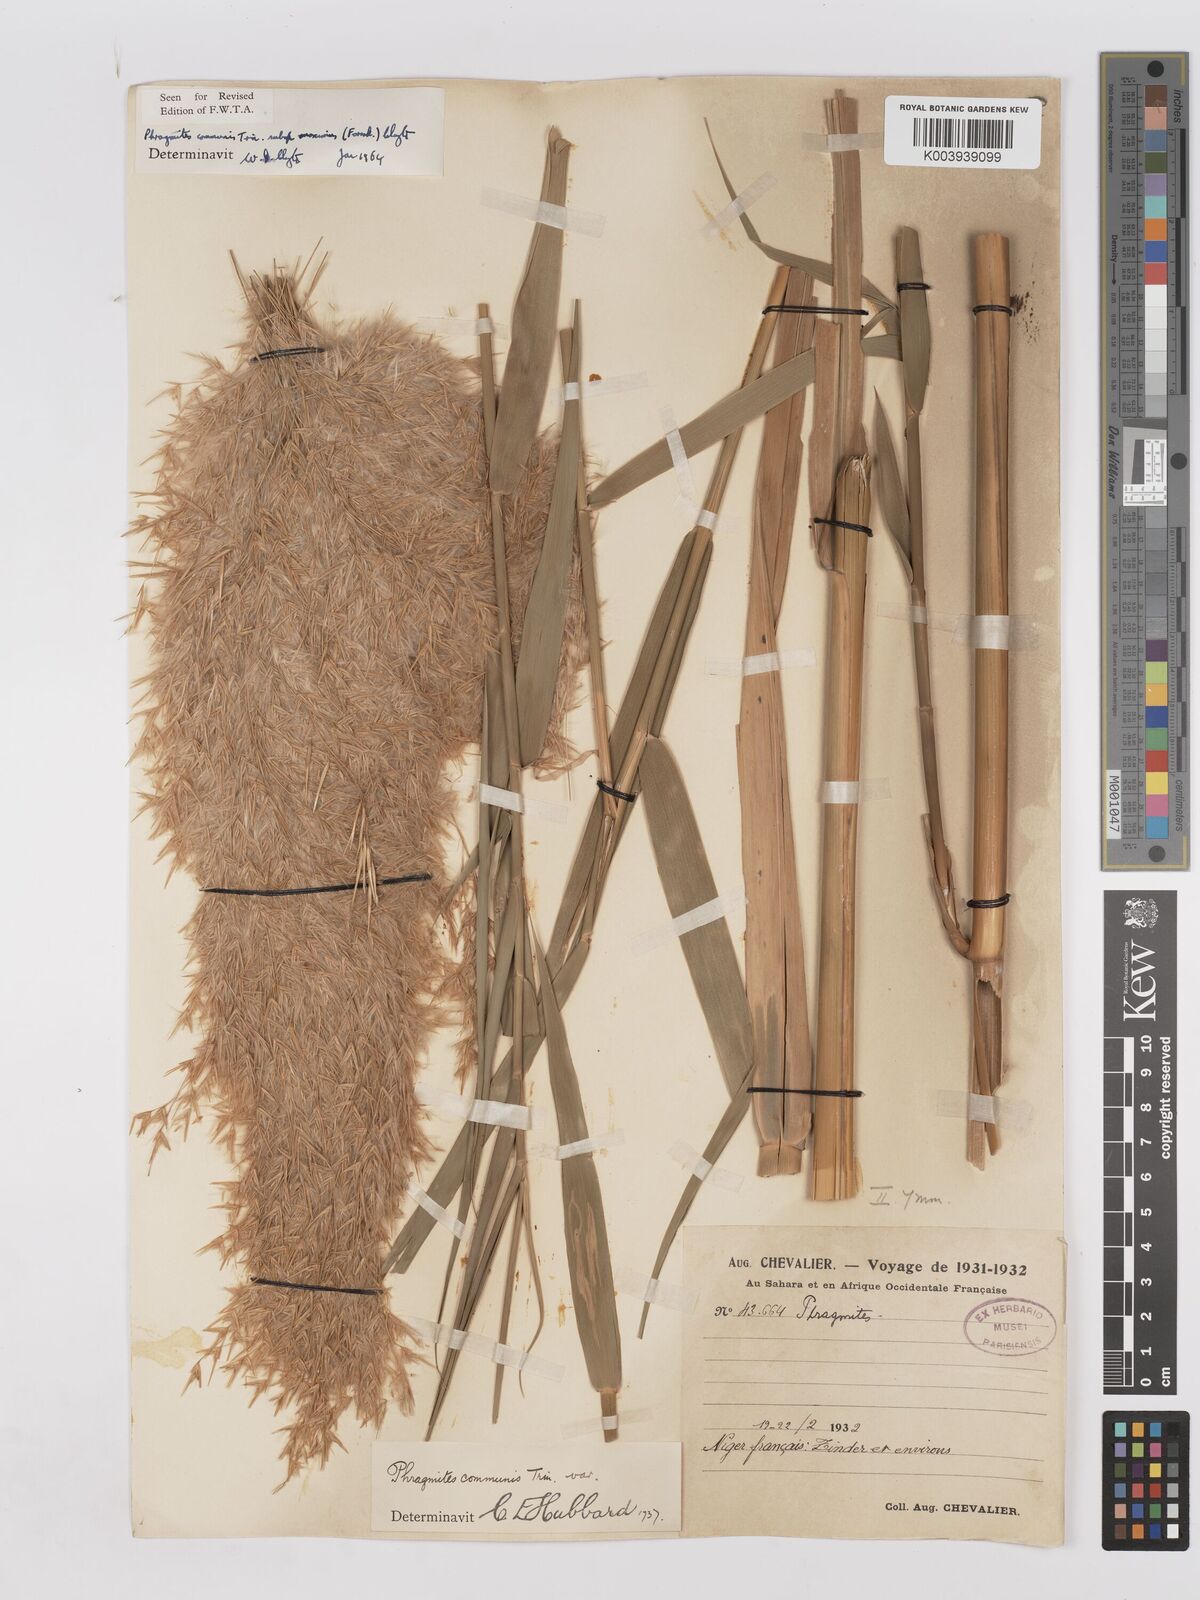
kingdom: Plantae
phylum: Tracheophyta
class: Liliopsida
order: Poales
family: Poaceae
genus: Phragmites
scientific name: Phragmites australis
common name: Common reed
